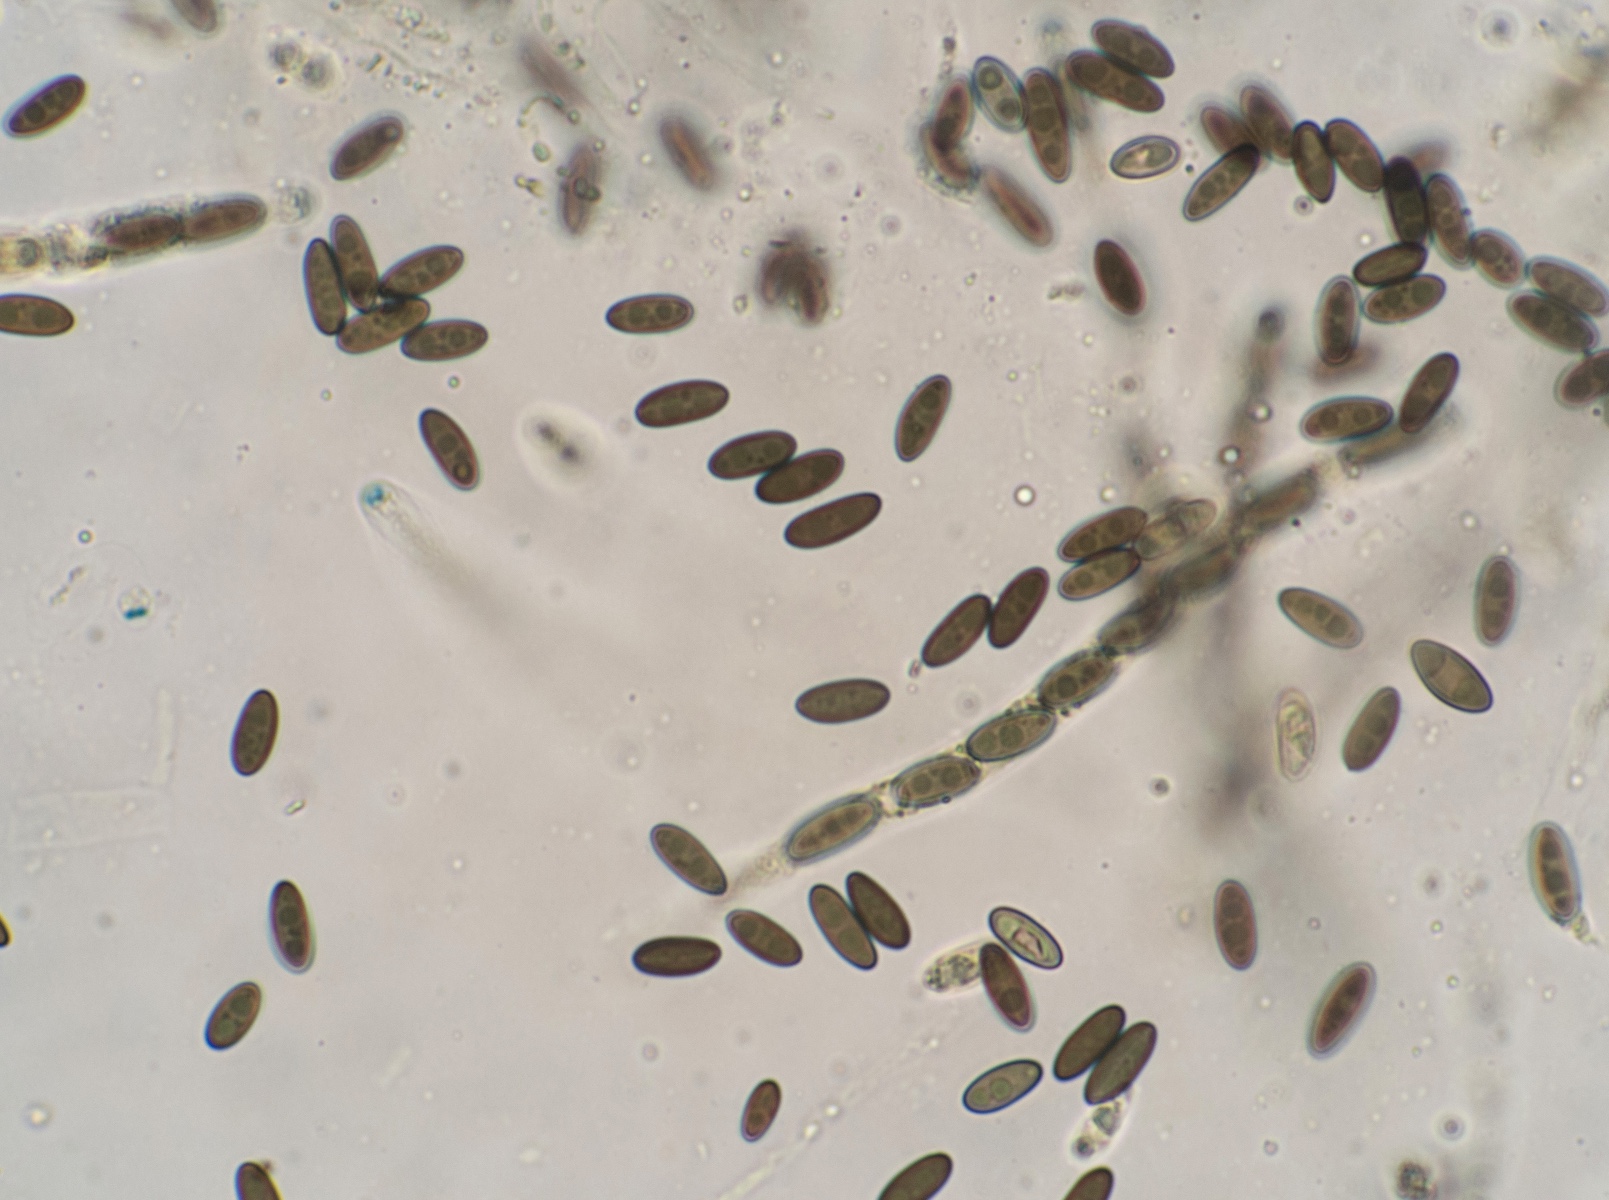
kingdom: Fungi
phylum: Ascomycota
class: Sordariomycetes
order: Xylariales
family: Lopadostomataceae
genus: Lopadostoma
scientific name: Lopadostoma
